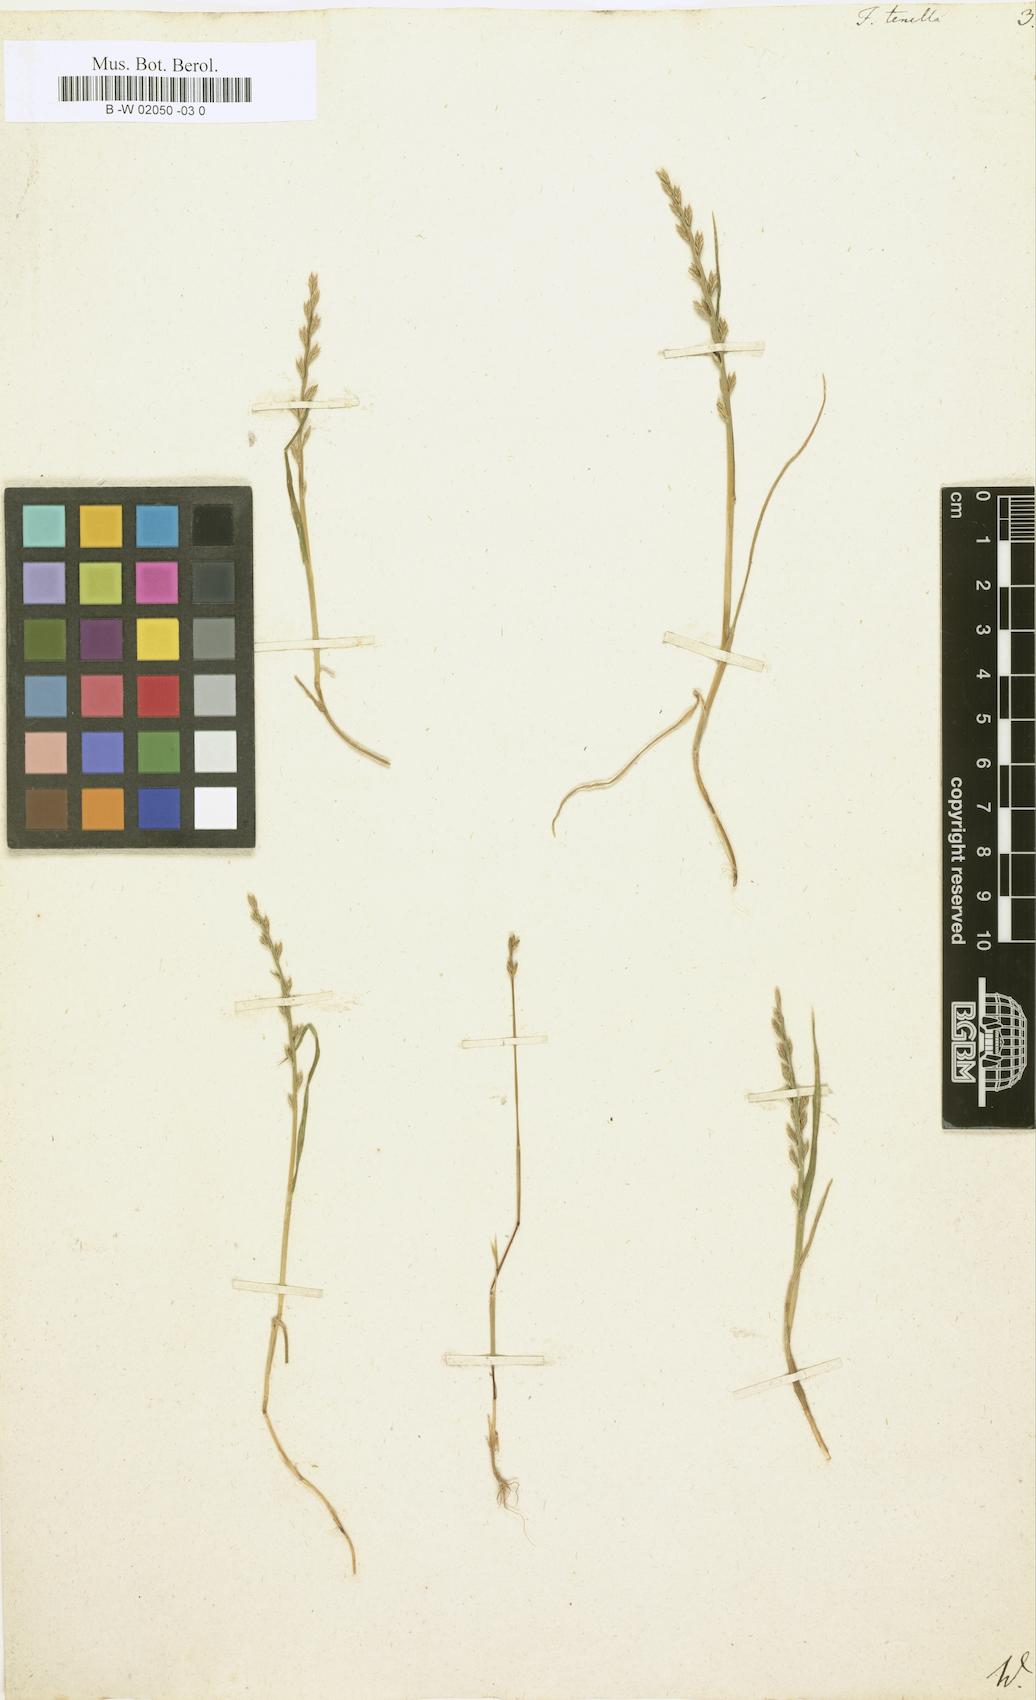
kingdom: Plantae
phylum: Tracheophyta
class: Liliopsida
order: Poales
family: Poaceae
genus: Festuca
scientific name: Festuca octoflora
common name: Sixweeks grass
